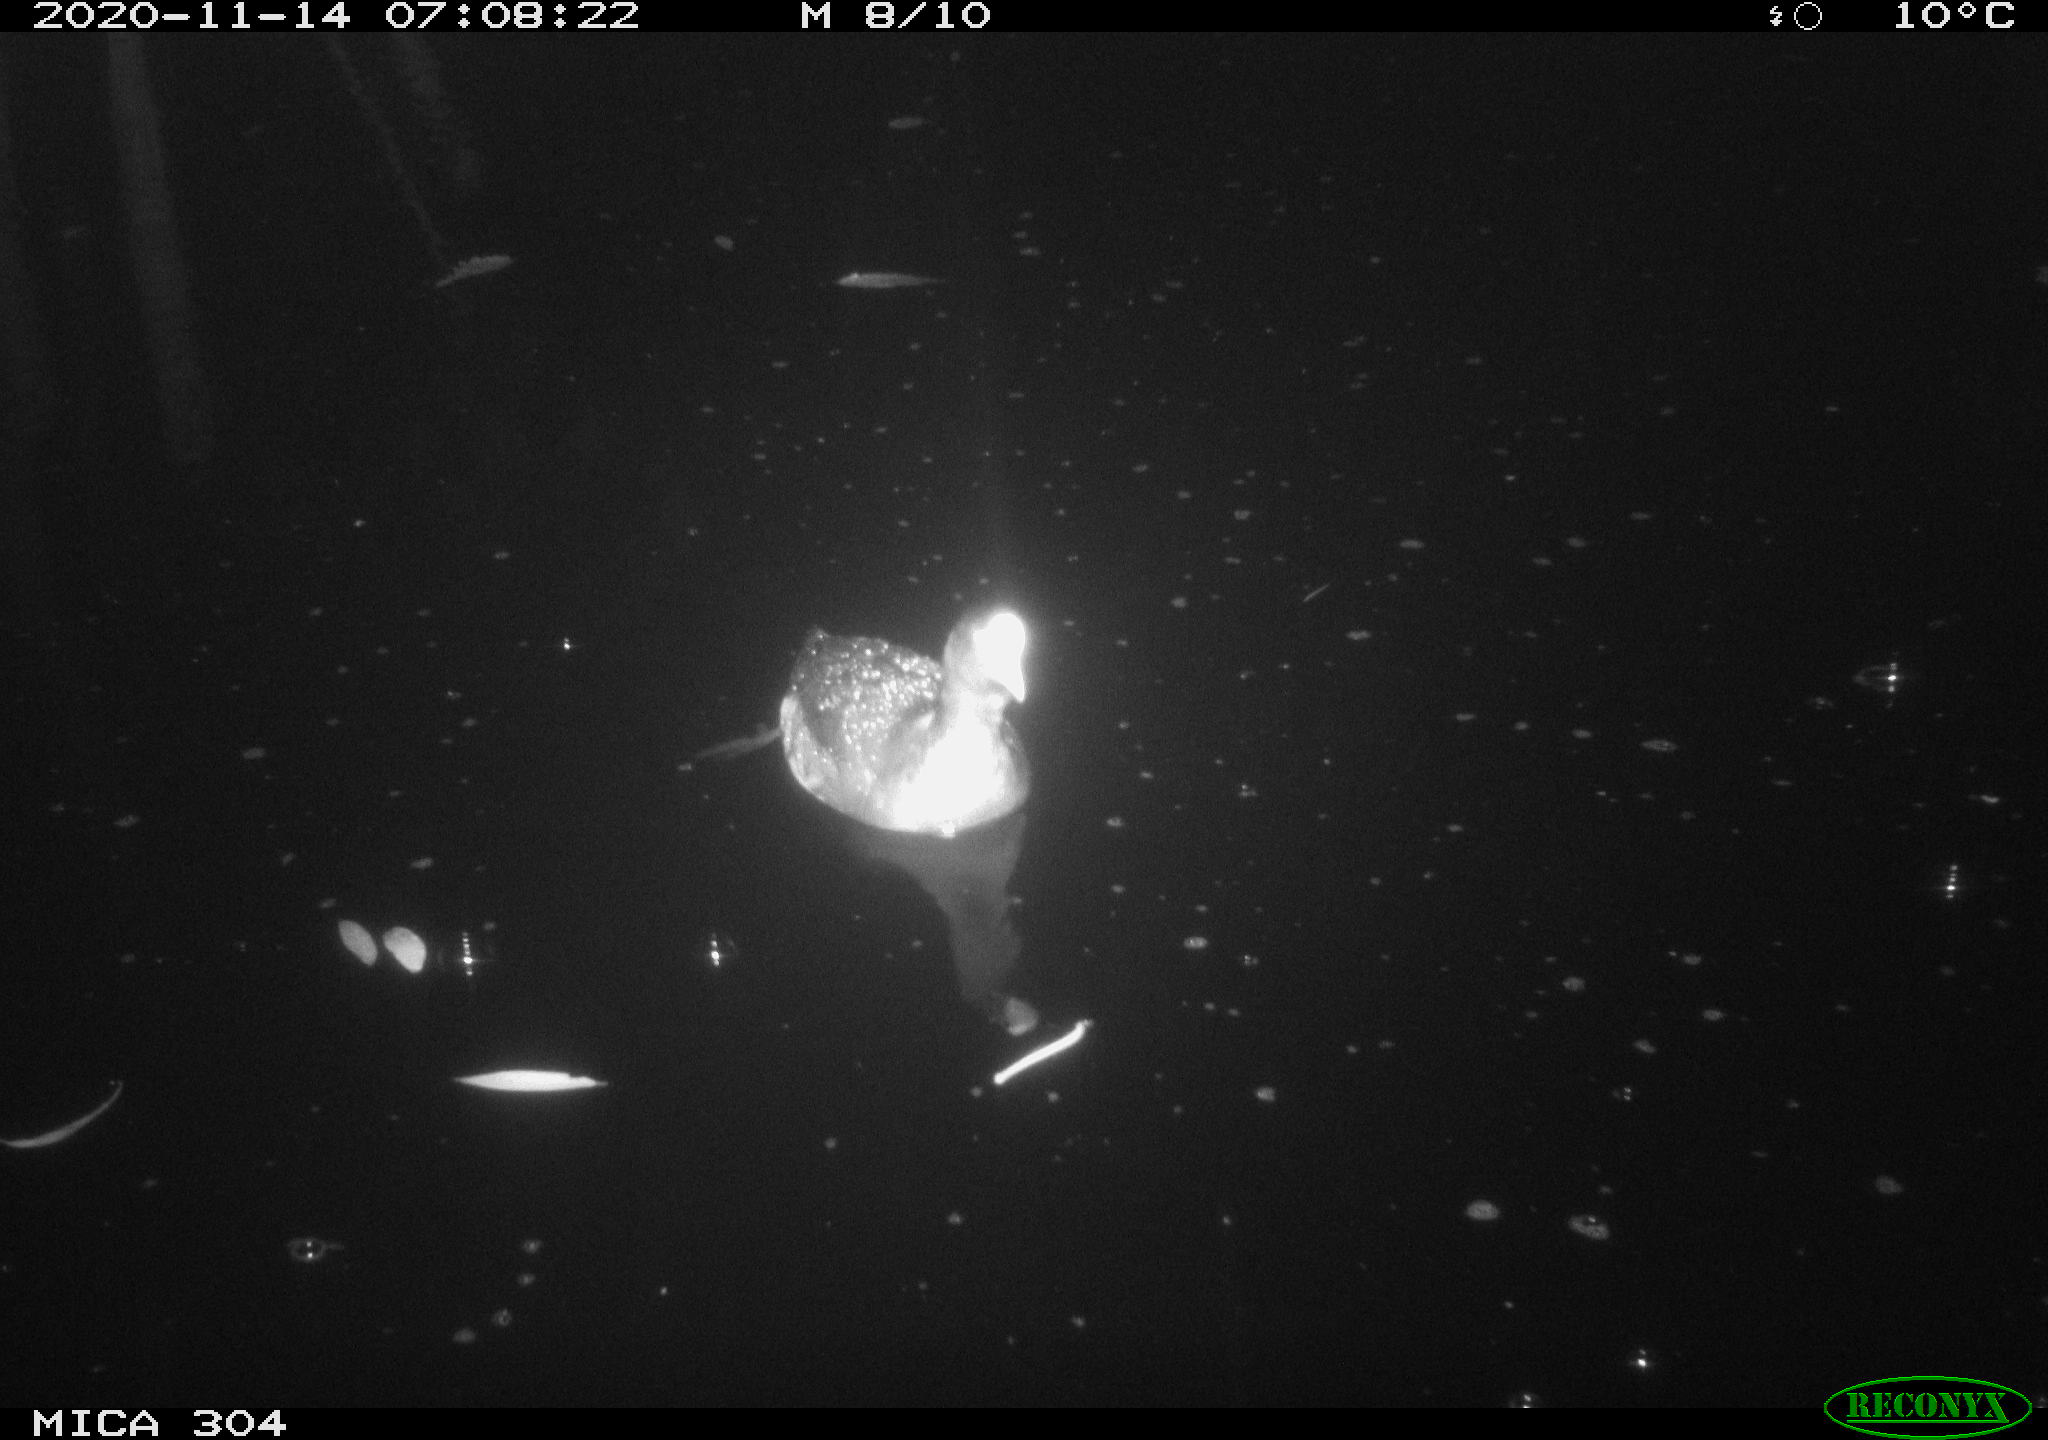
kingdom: Animalia
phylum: Chordata
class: Aves
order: Gruiformes
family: Rallidae
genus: Fulica
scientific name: Fulica atra
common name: Eurasian coot
